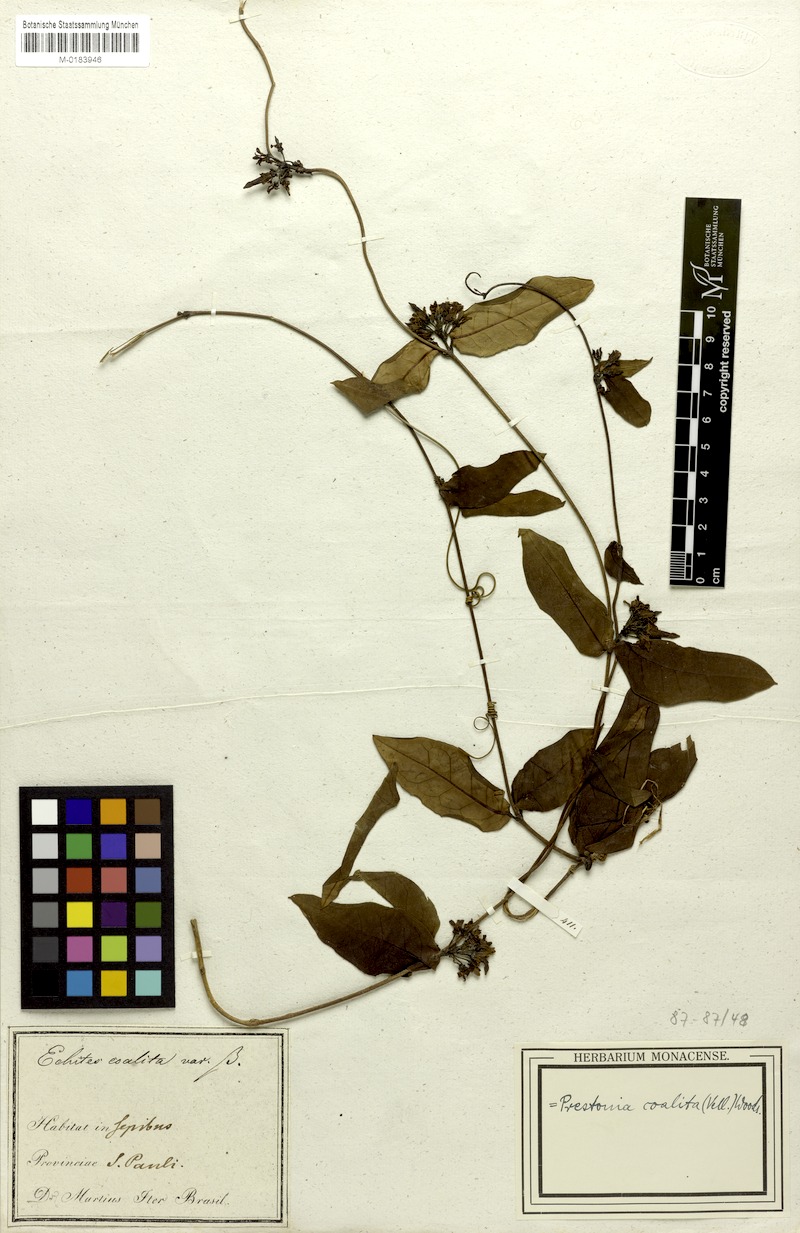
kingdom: Plantae
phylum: Tracheophyta
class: Magnoliopsida
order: Gentianales
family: Apocynaceae
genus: Prestonia
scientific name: Prestonia coalita
